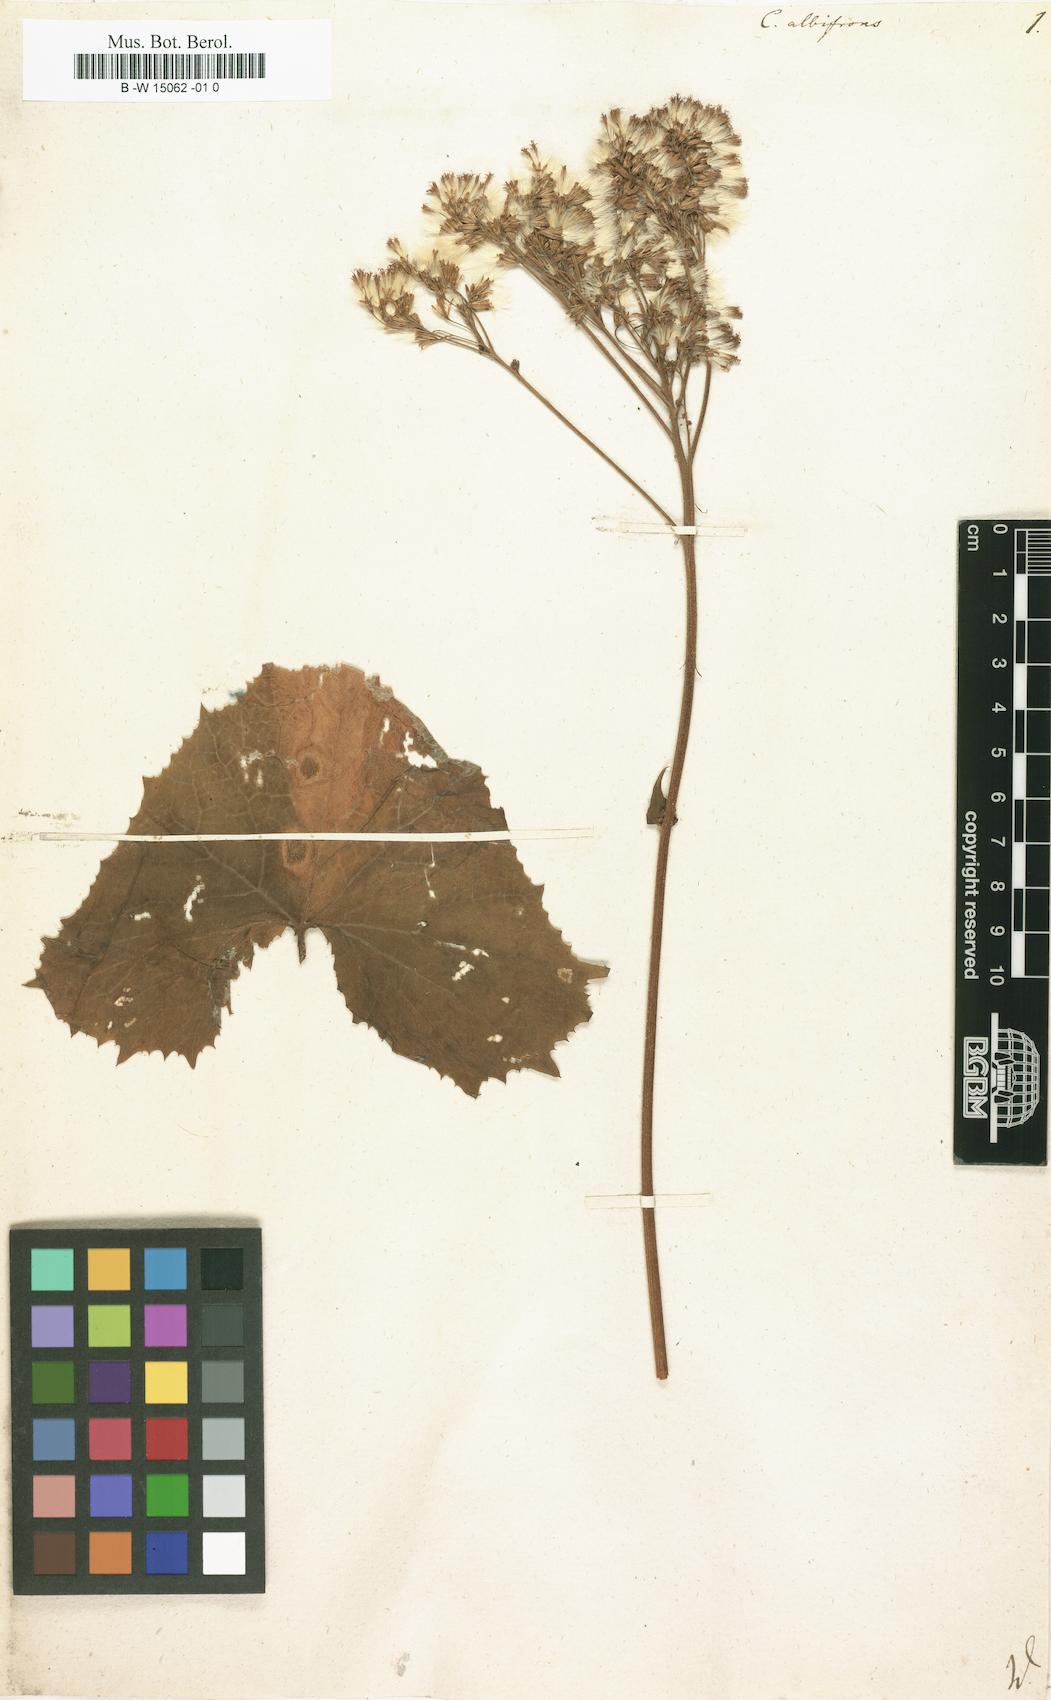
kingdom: Plantae
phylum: Tracheophyta
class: Magnoliopsida
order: Asterales
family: Asteraceae
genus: Adenostyles
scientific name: Adenostyles alliariae
